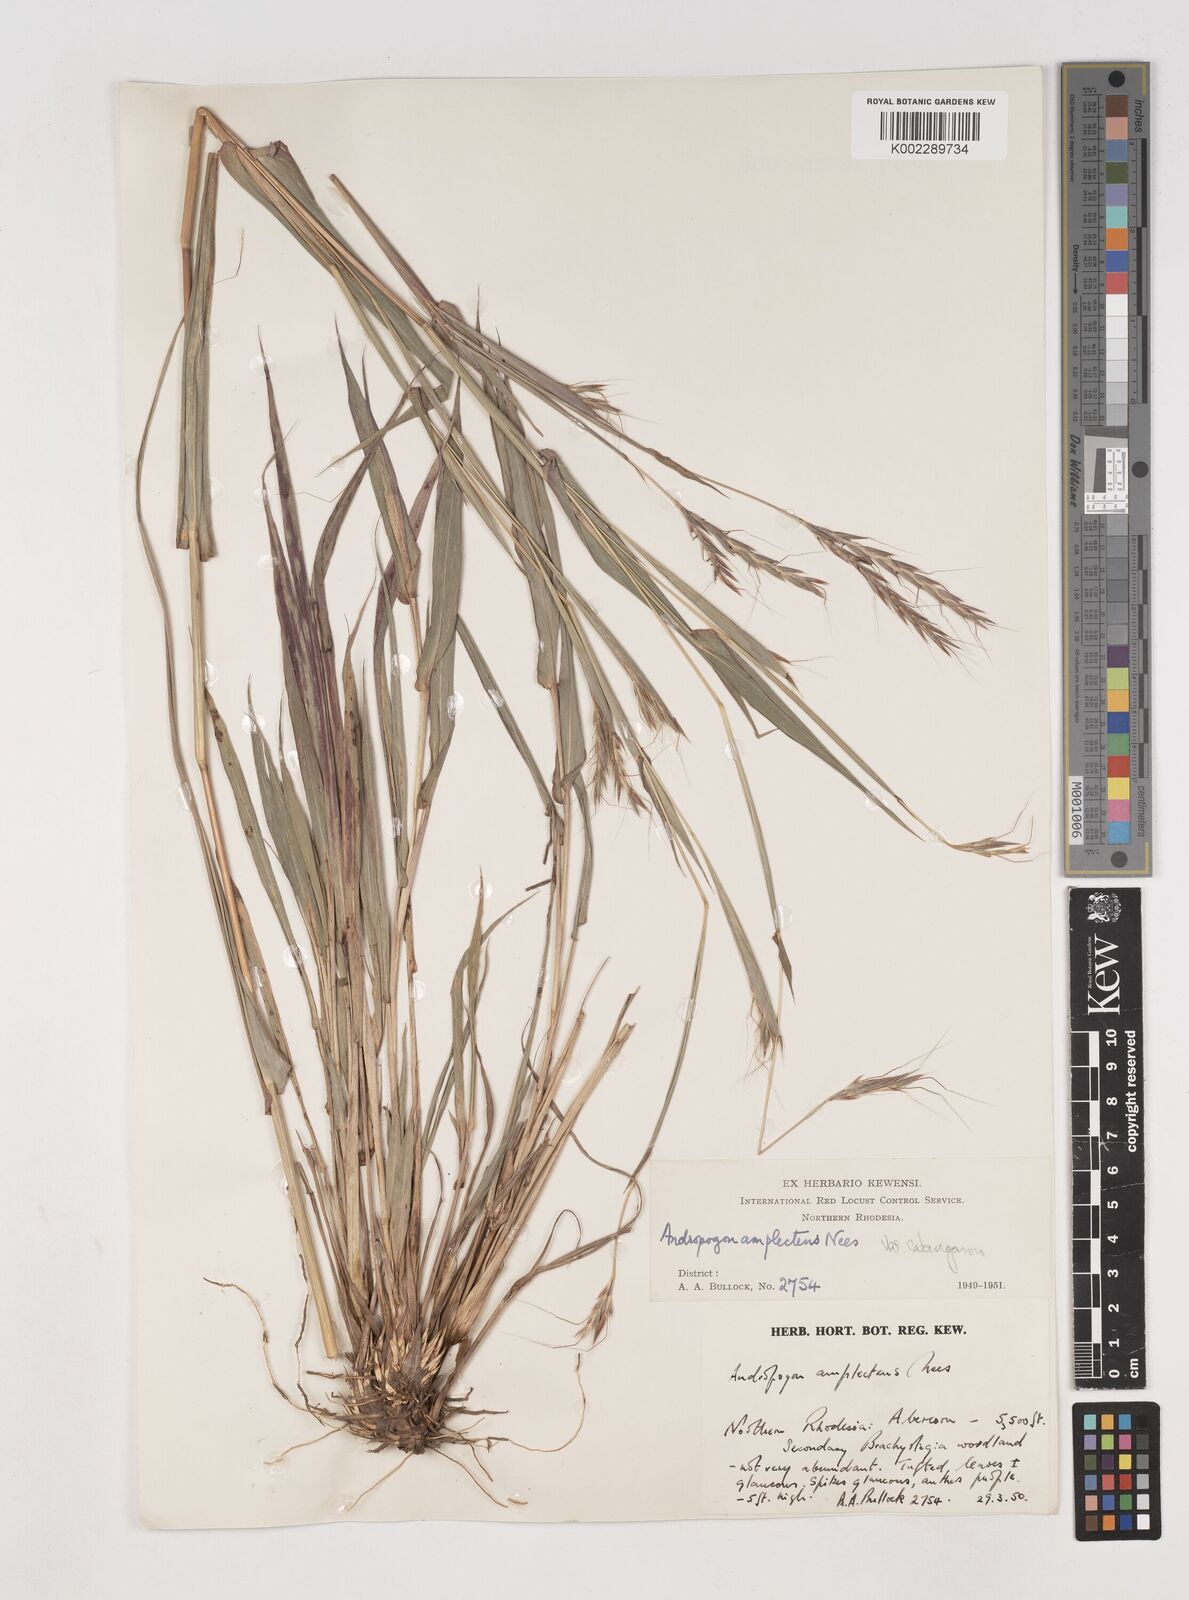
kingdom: Plantae
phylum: Tracheophyta
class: Liliopsida
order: Poales
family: Poaceae
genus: Diheteropogon
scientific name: Diheteropogon amplectens
